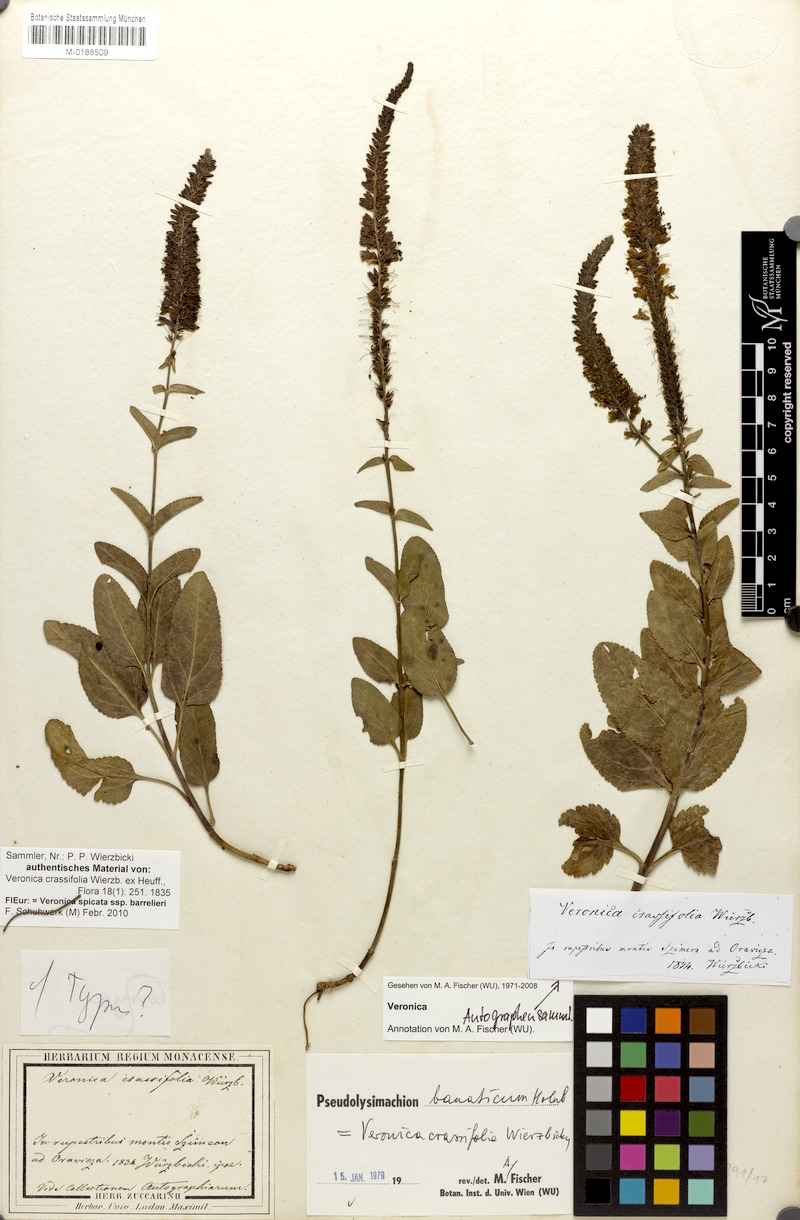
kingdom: Plantae
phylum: Tracheophyta
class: Magnoliopsida
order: Lamiales
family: Plantaginaceae
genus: Veronica
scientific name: Veronica barrelieri
